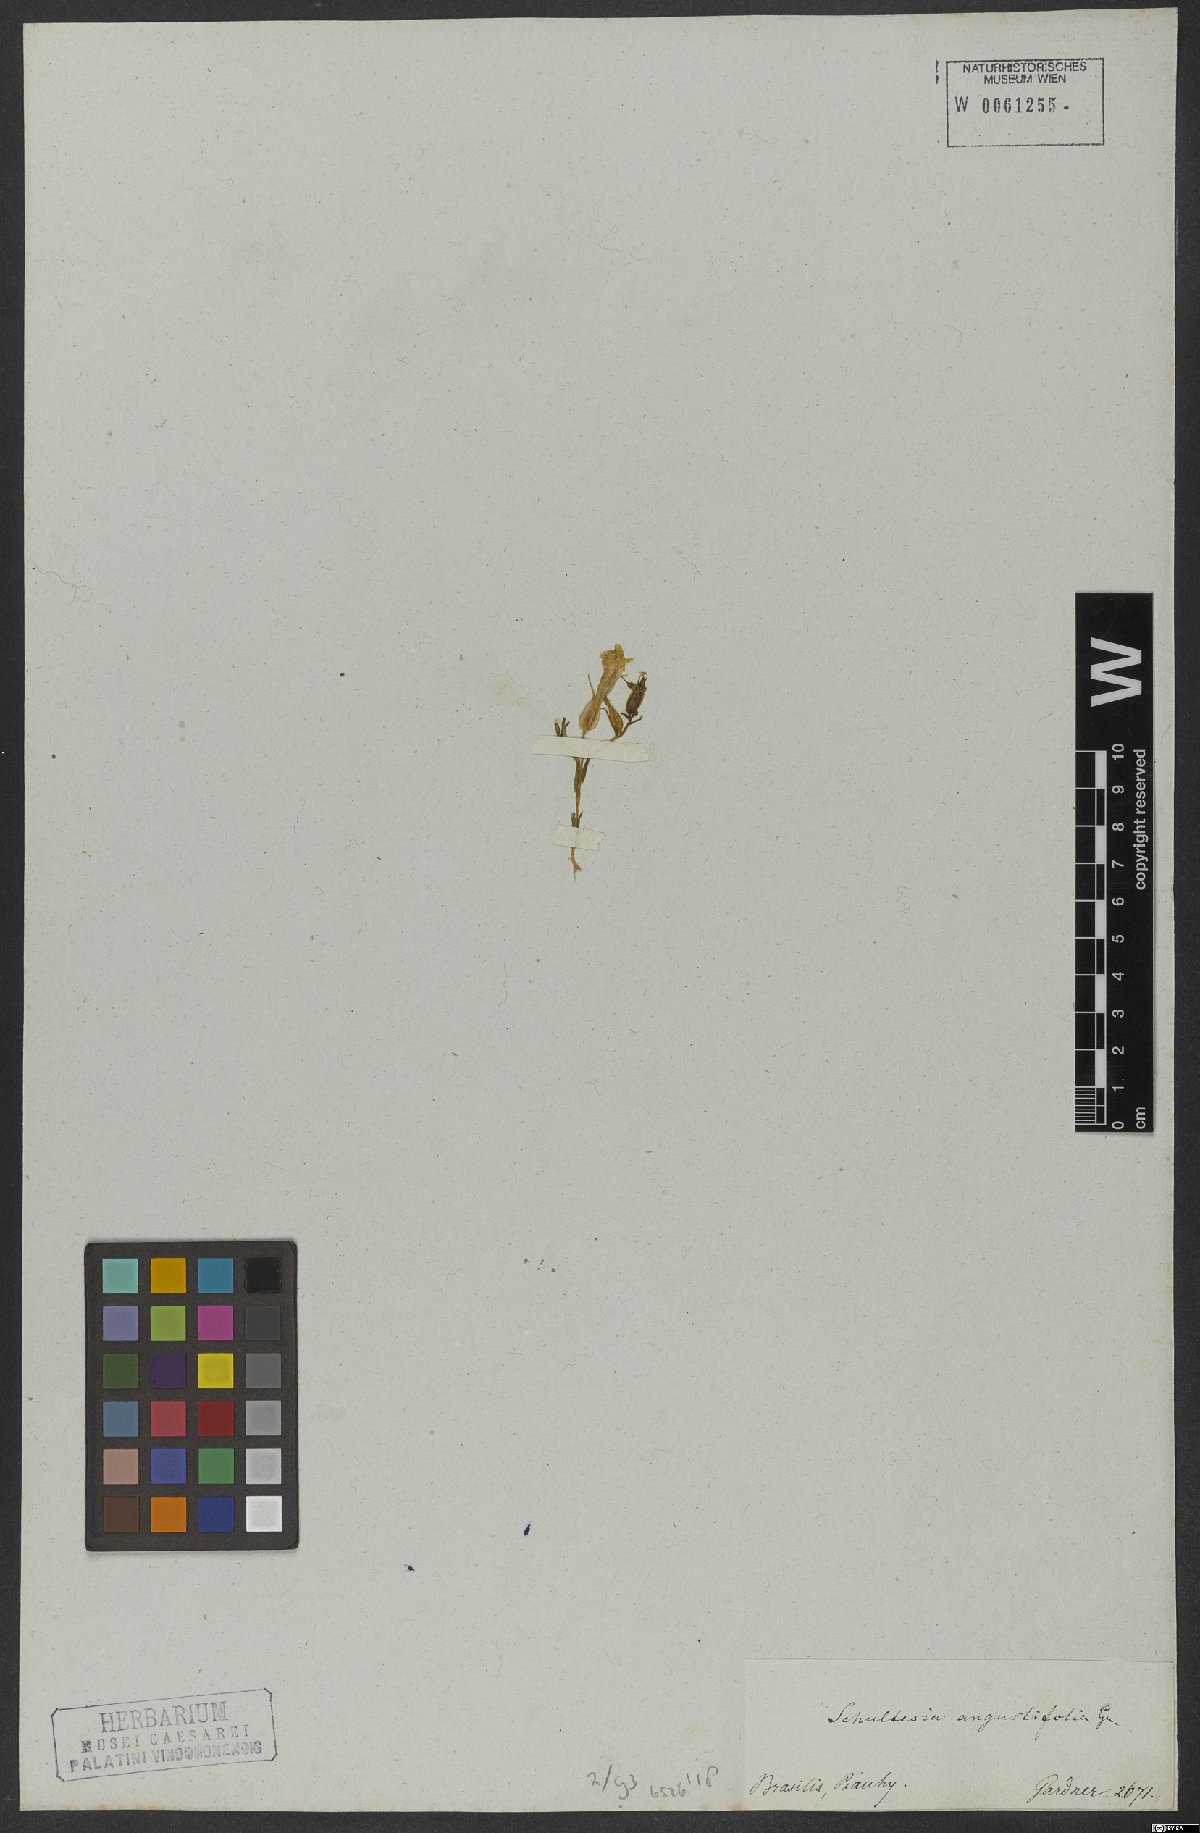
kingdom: Plantae
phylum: Tracheophyta
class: Magnoliopsida
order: Gentianales
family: Gentianaceae
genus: Schultesia
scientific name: Schultesia angustifolia
